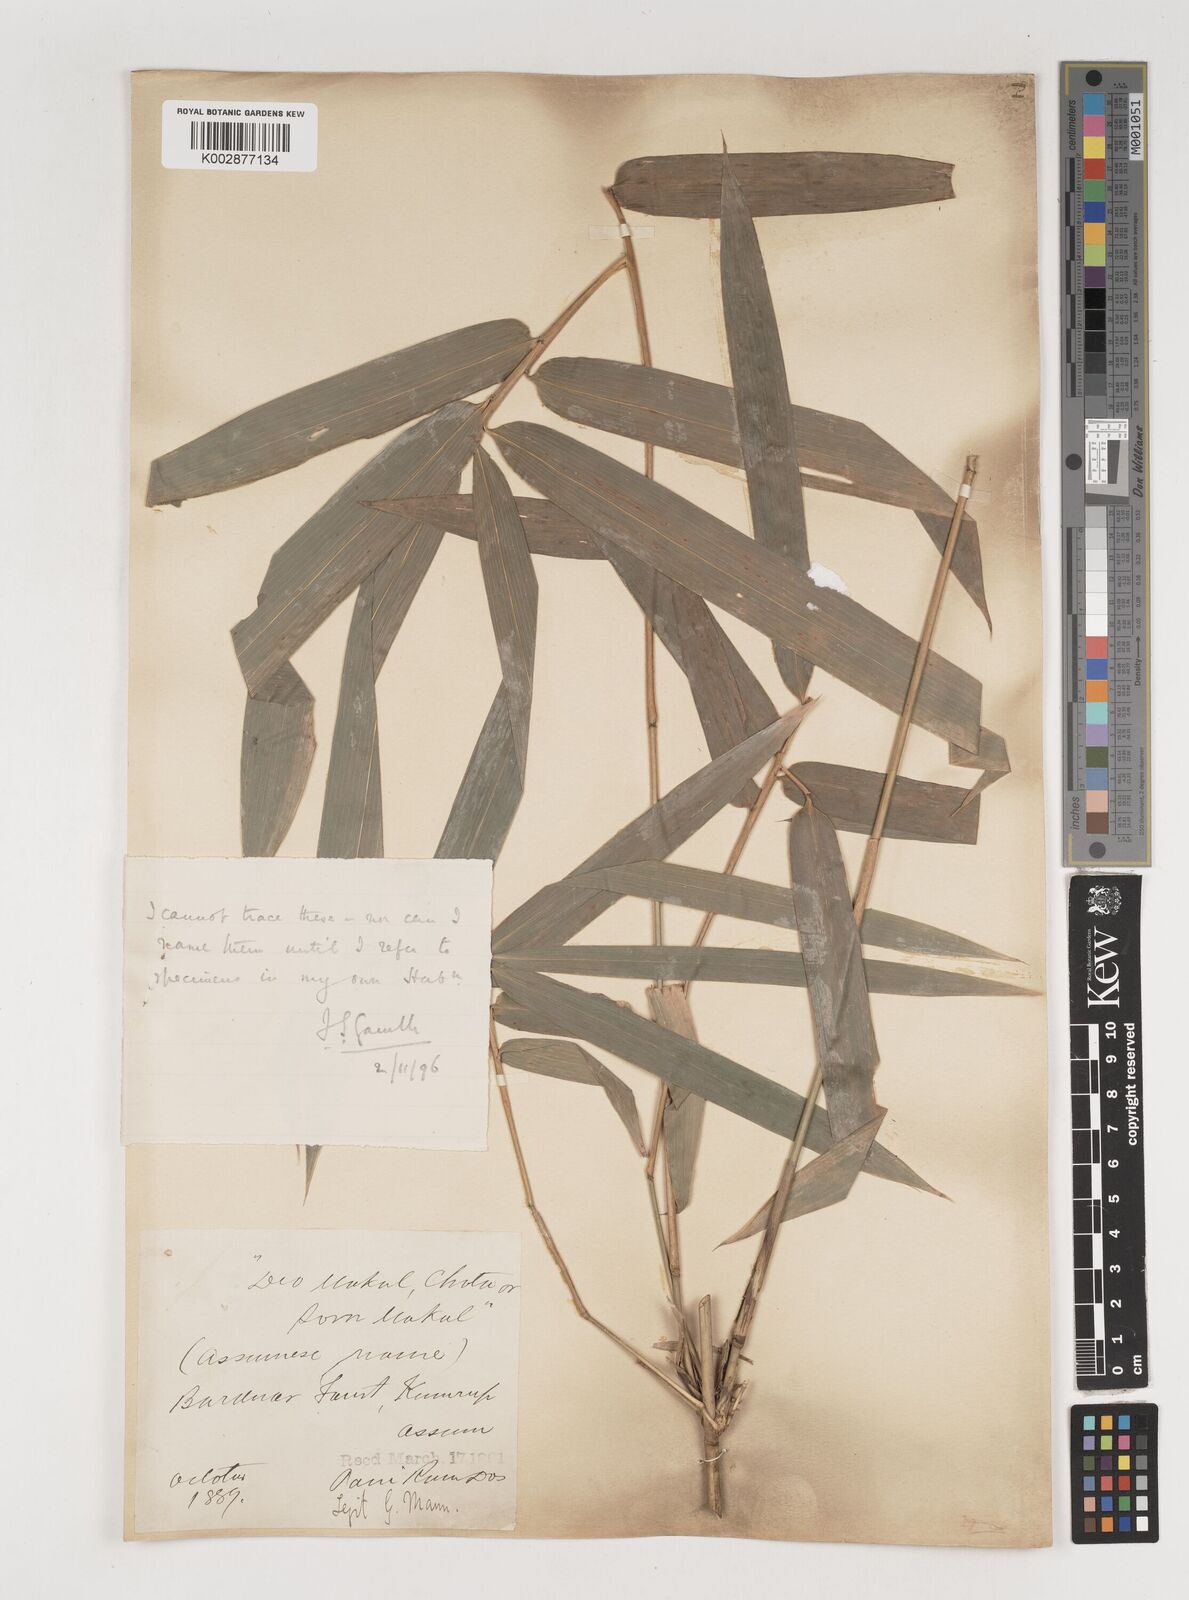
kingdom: Plantae
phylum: Tracheophyta
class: Liliopsida
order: Poales
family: Poaceae
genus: Bambusa
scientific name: Bambusa
